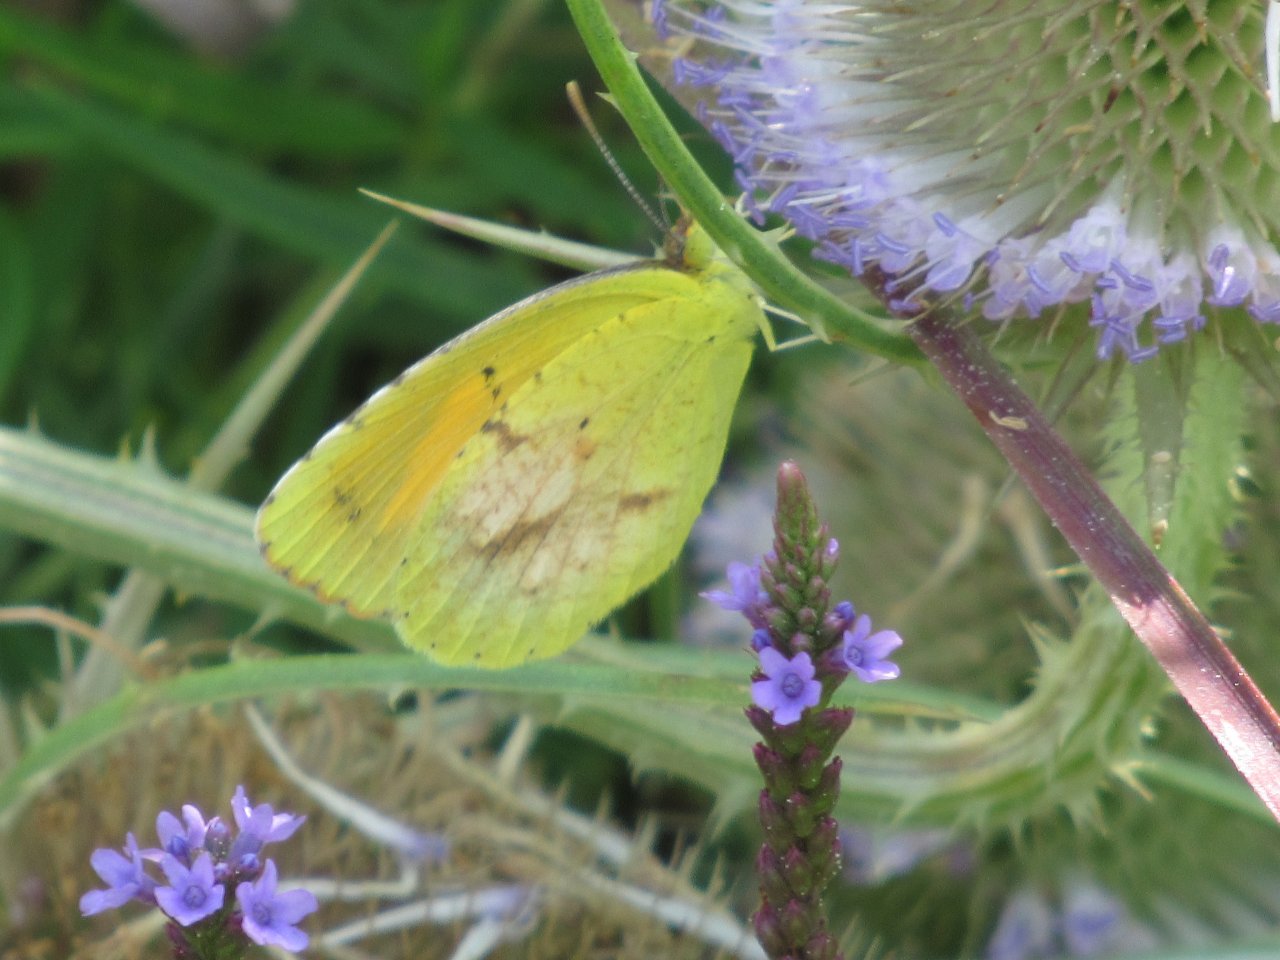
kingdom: Animalia
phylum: Arthropoda
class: Insecta
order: Lepidoptera
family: Pieridae
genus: Abaeis
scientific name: Abaeis nicippe
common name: Sleepy Orange
